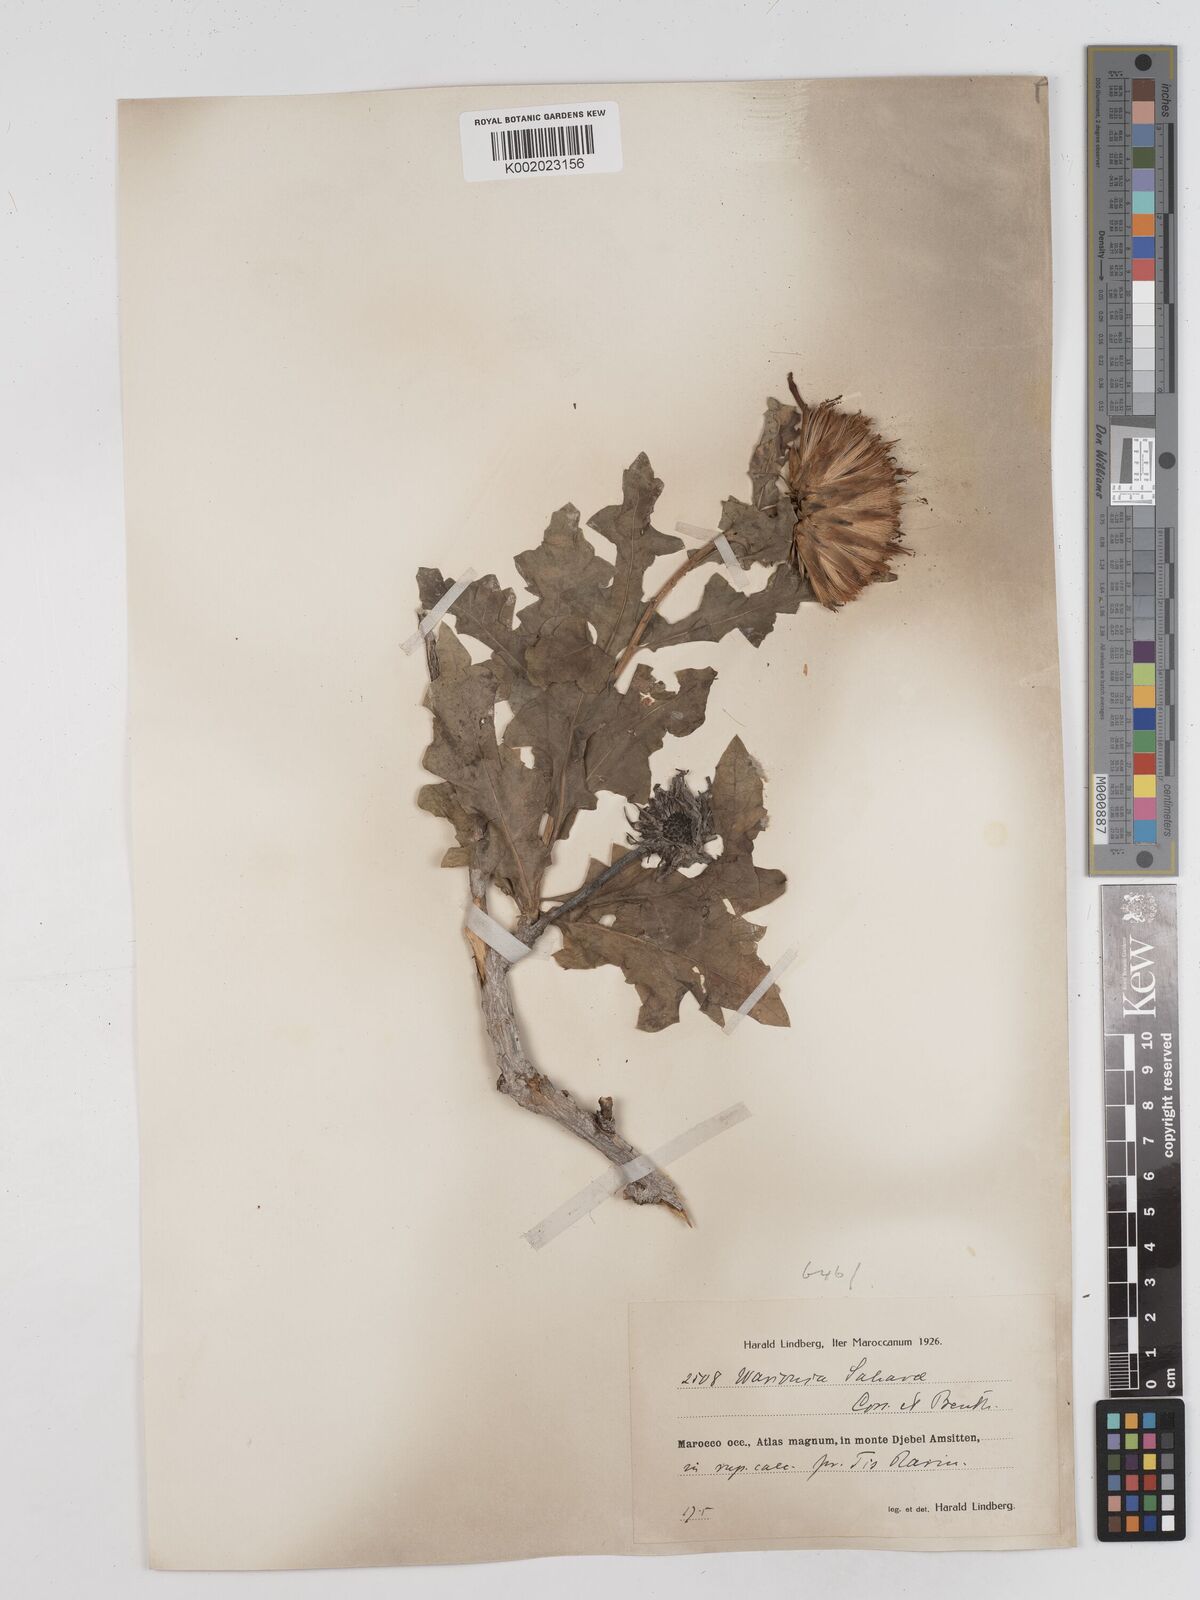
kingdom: Plantae
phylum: Tracheophyta
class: Magnoliopsida
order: Asterales
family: Asteraceae
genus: Warionia
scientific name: Warionia saharae
